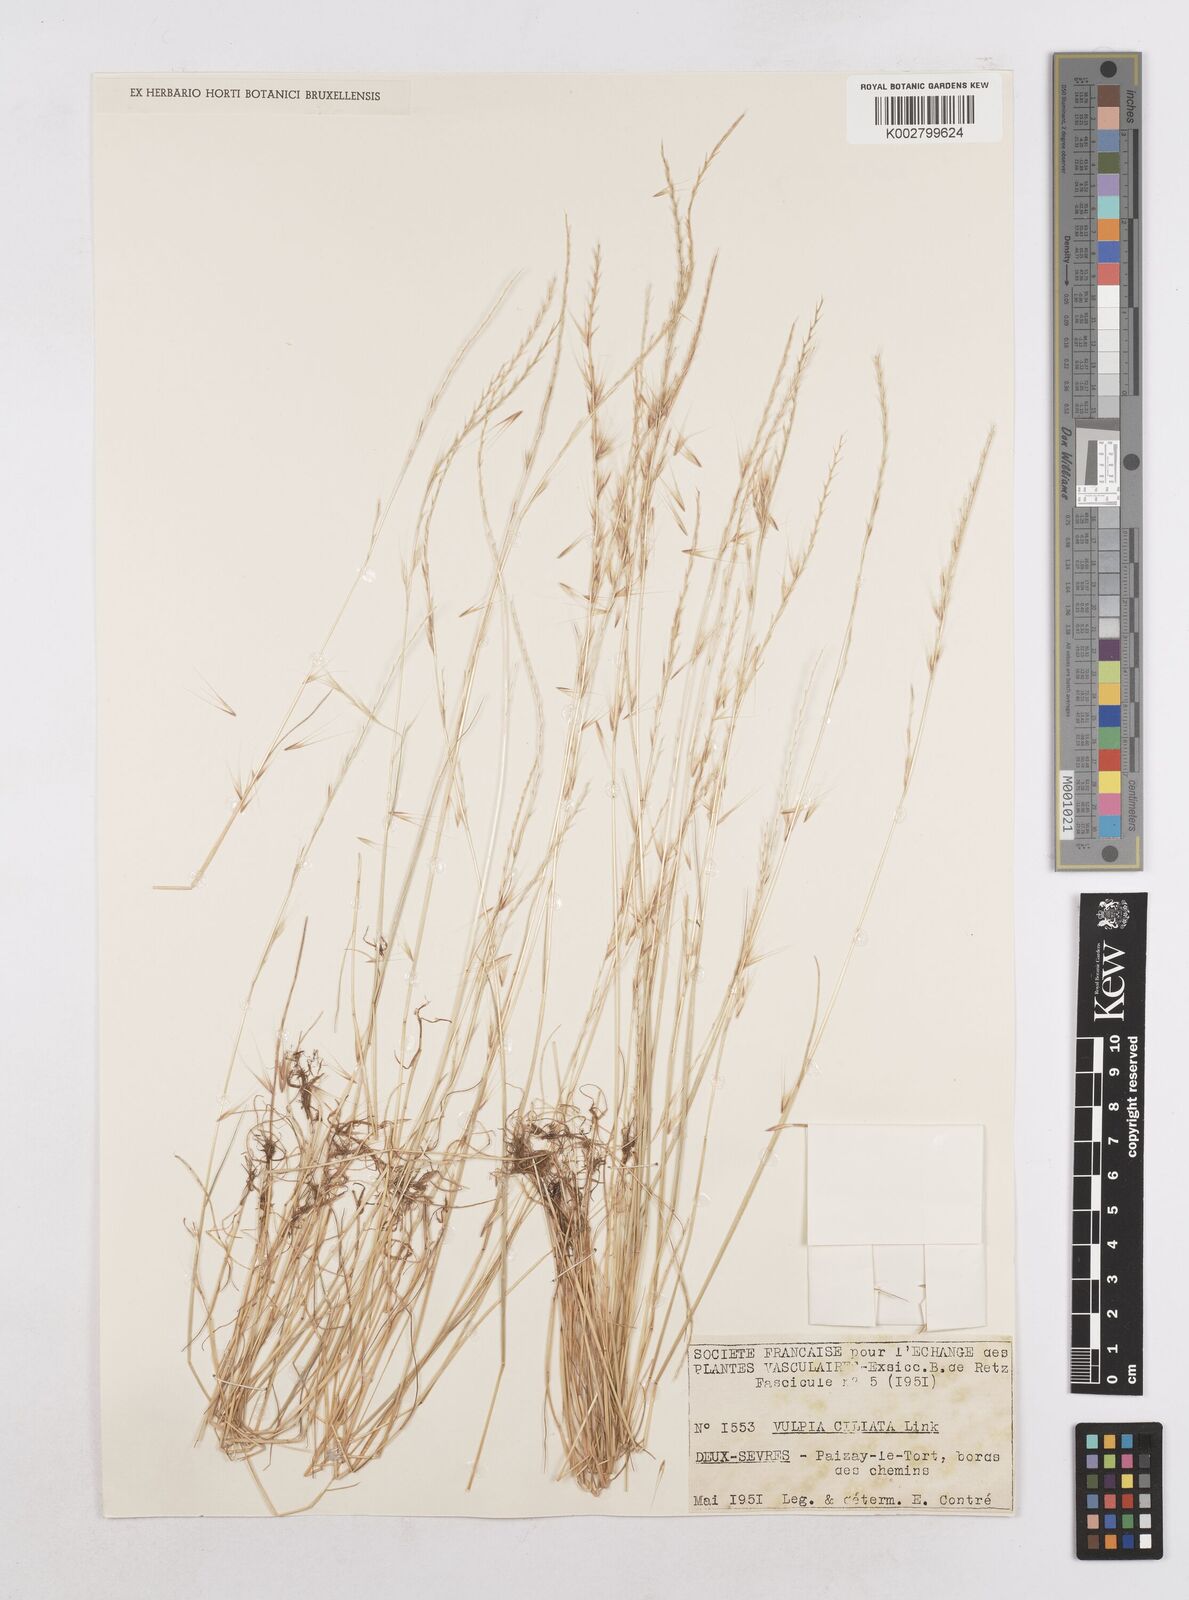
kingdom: Plantae
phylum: Tracheophyta
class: Liliopsida
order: Poales
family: Poaceae
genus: Festuca
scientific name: Festuca
